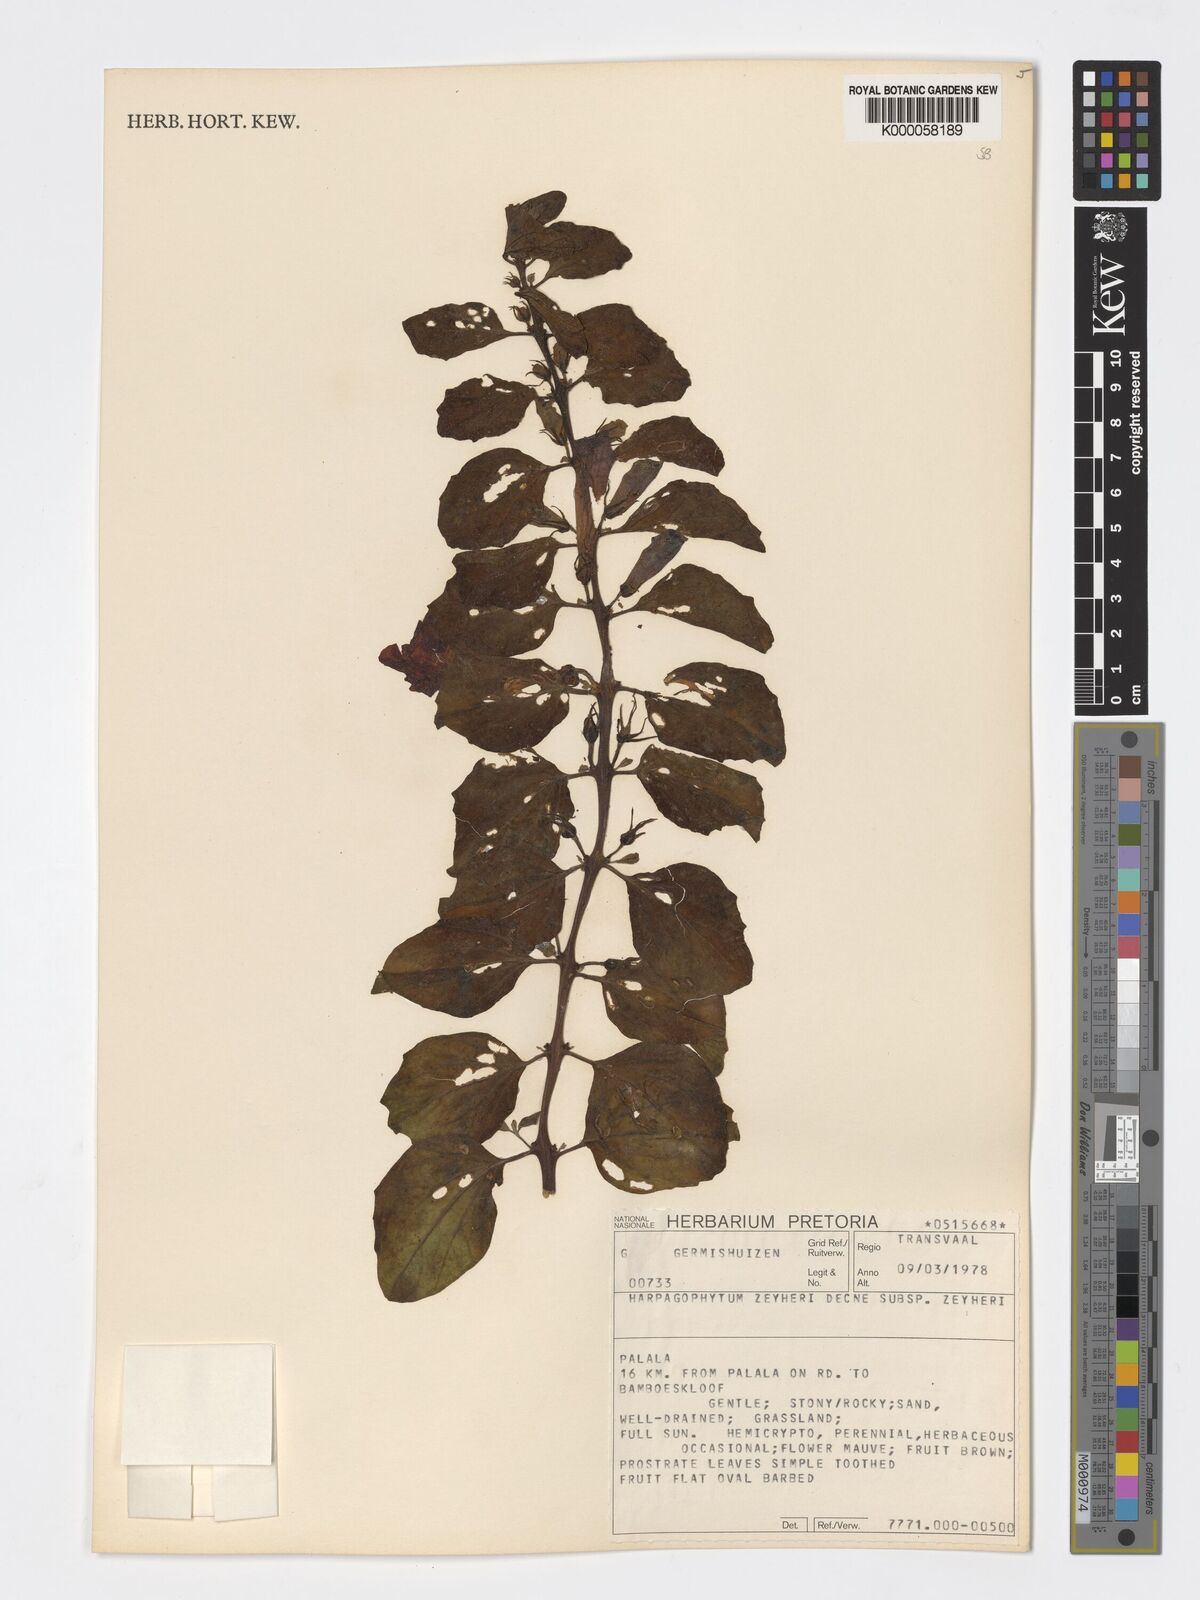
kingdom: Plantae
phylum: Tracheophyta
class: Magnoliopsida
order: Lamiales
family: Pedaliaceae
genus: Harpagophytum
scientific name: Harpagophytum zeyheri
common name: Grappleplant
